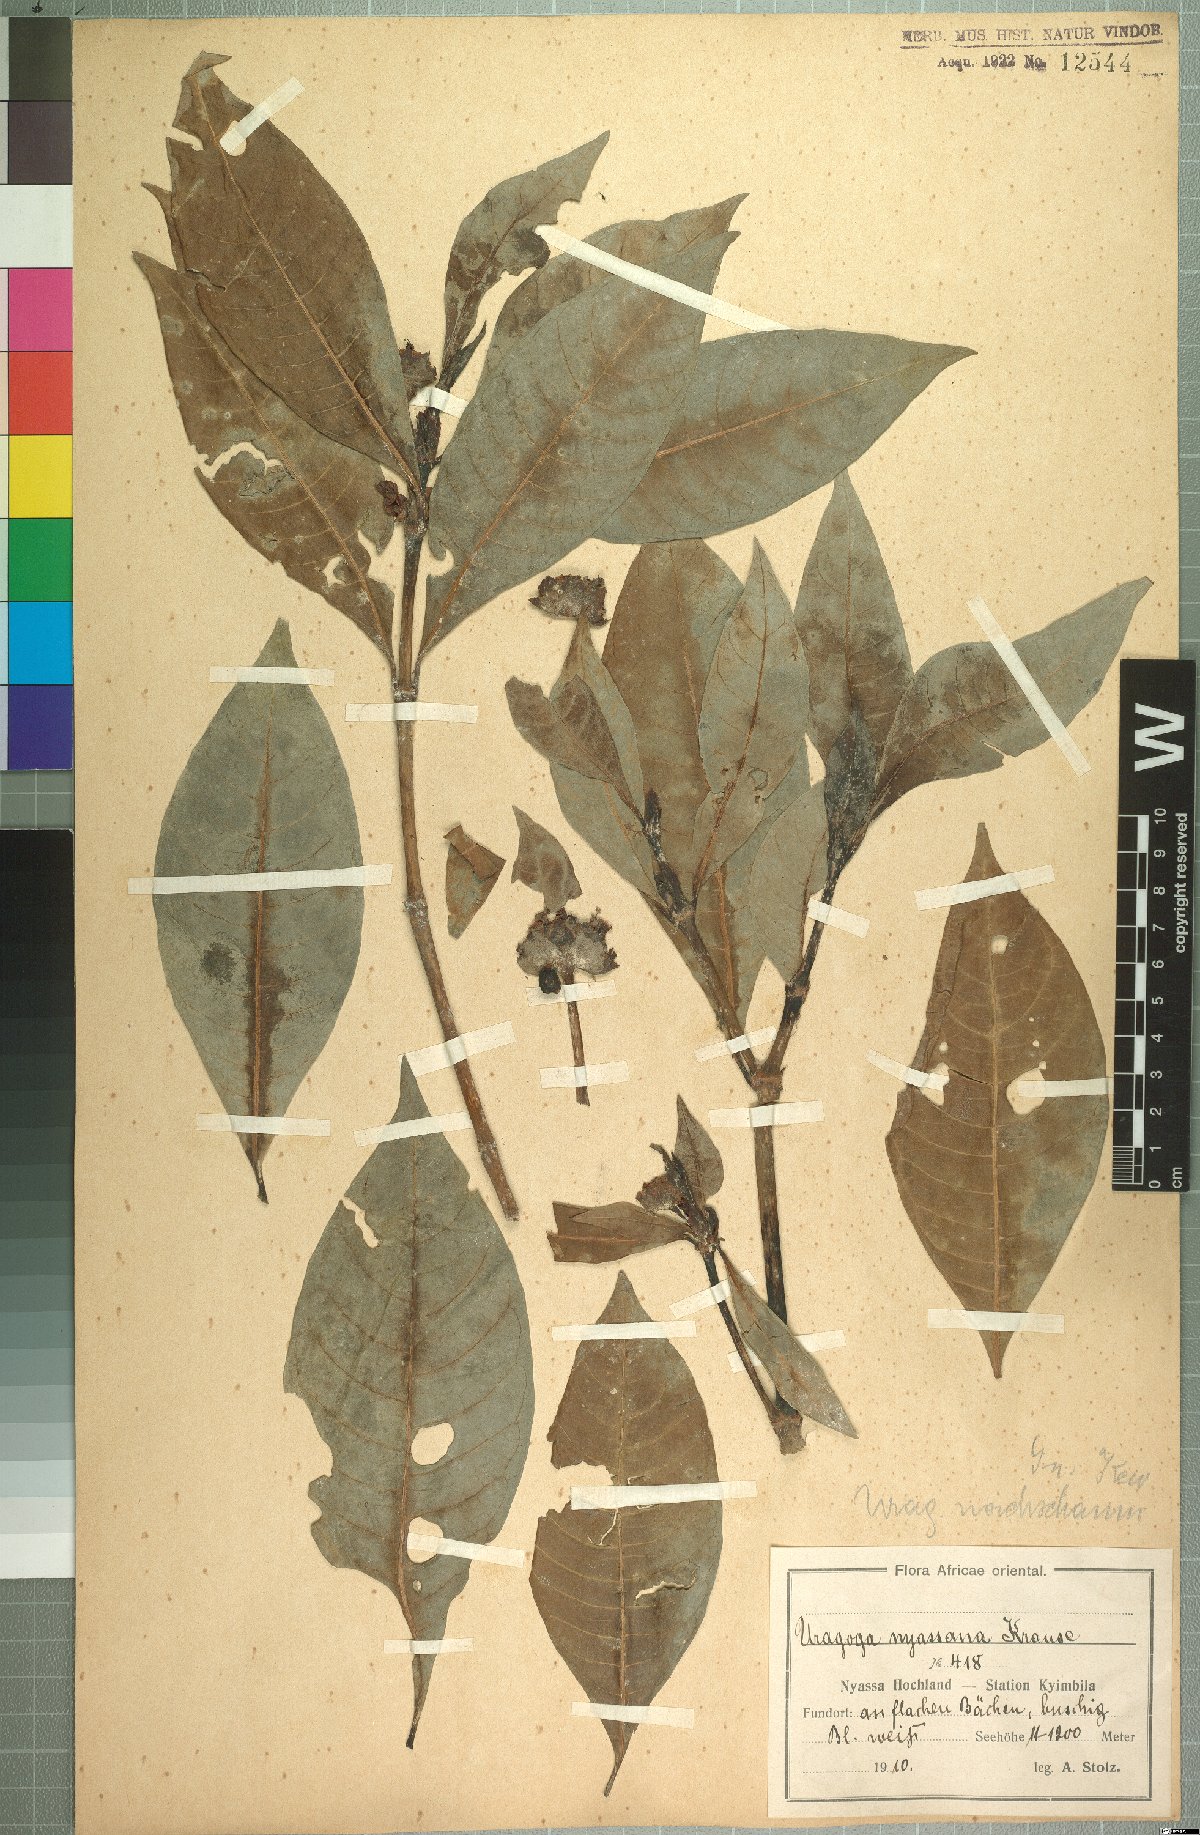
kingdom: Plantae
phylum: Tracheophyta
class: Magnoliopsida
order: Gentianales
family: Rubiaceae
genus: Psychotria
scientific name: Psychotria peduncularis
